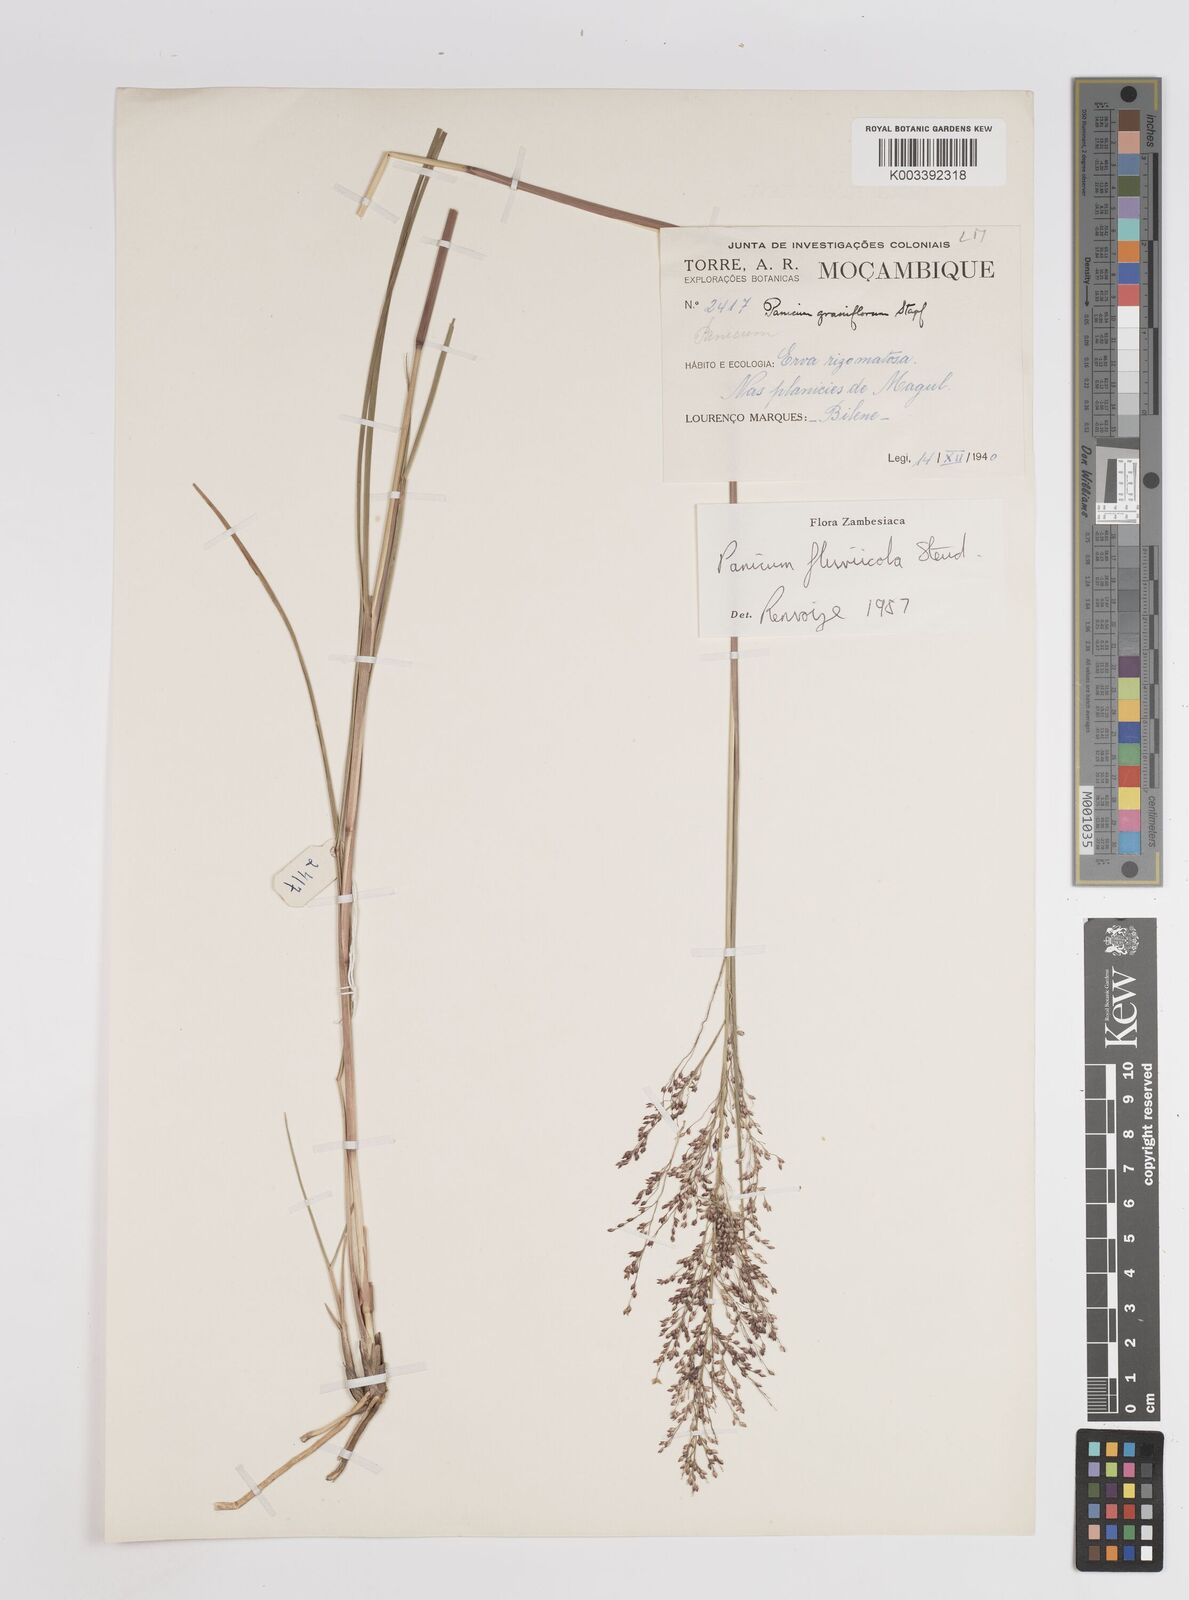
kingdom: Plantae
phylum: Tracheophyta
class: Liliopsida
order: Poales
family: Poaceae
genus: Panicum
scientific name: Panicum fluviicola
